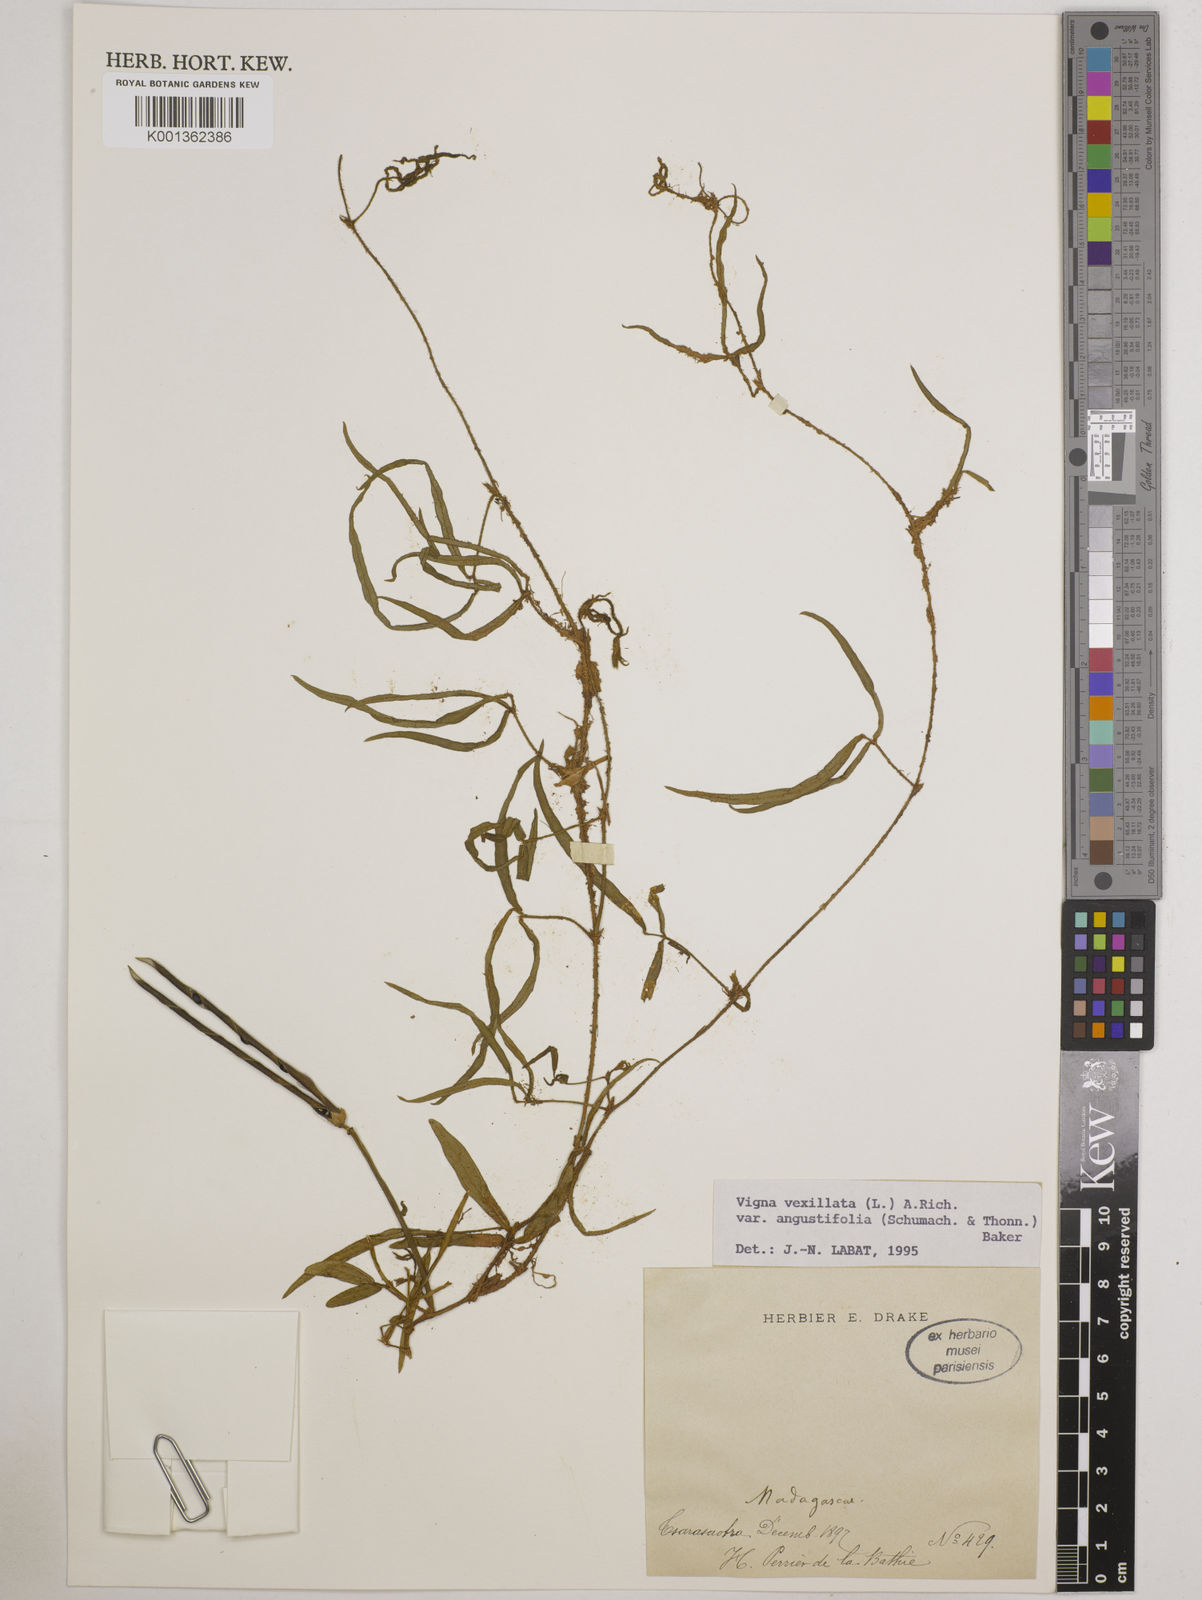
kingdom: Plantae
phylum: Tracheophyta
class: Magnoliopsida
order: Fabales
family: Fabaceae
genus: Vigna
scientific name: Vigna vexillata
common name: Zombi pea
